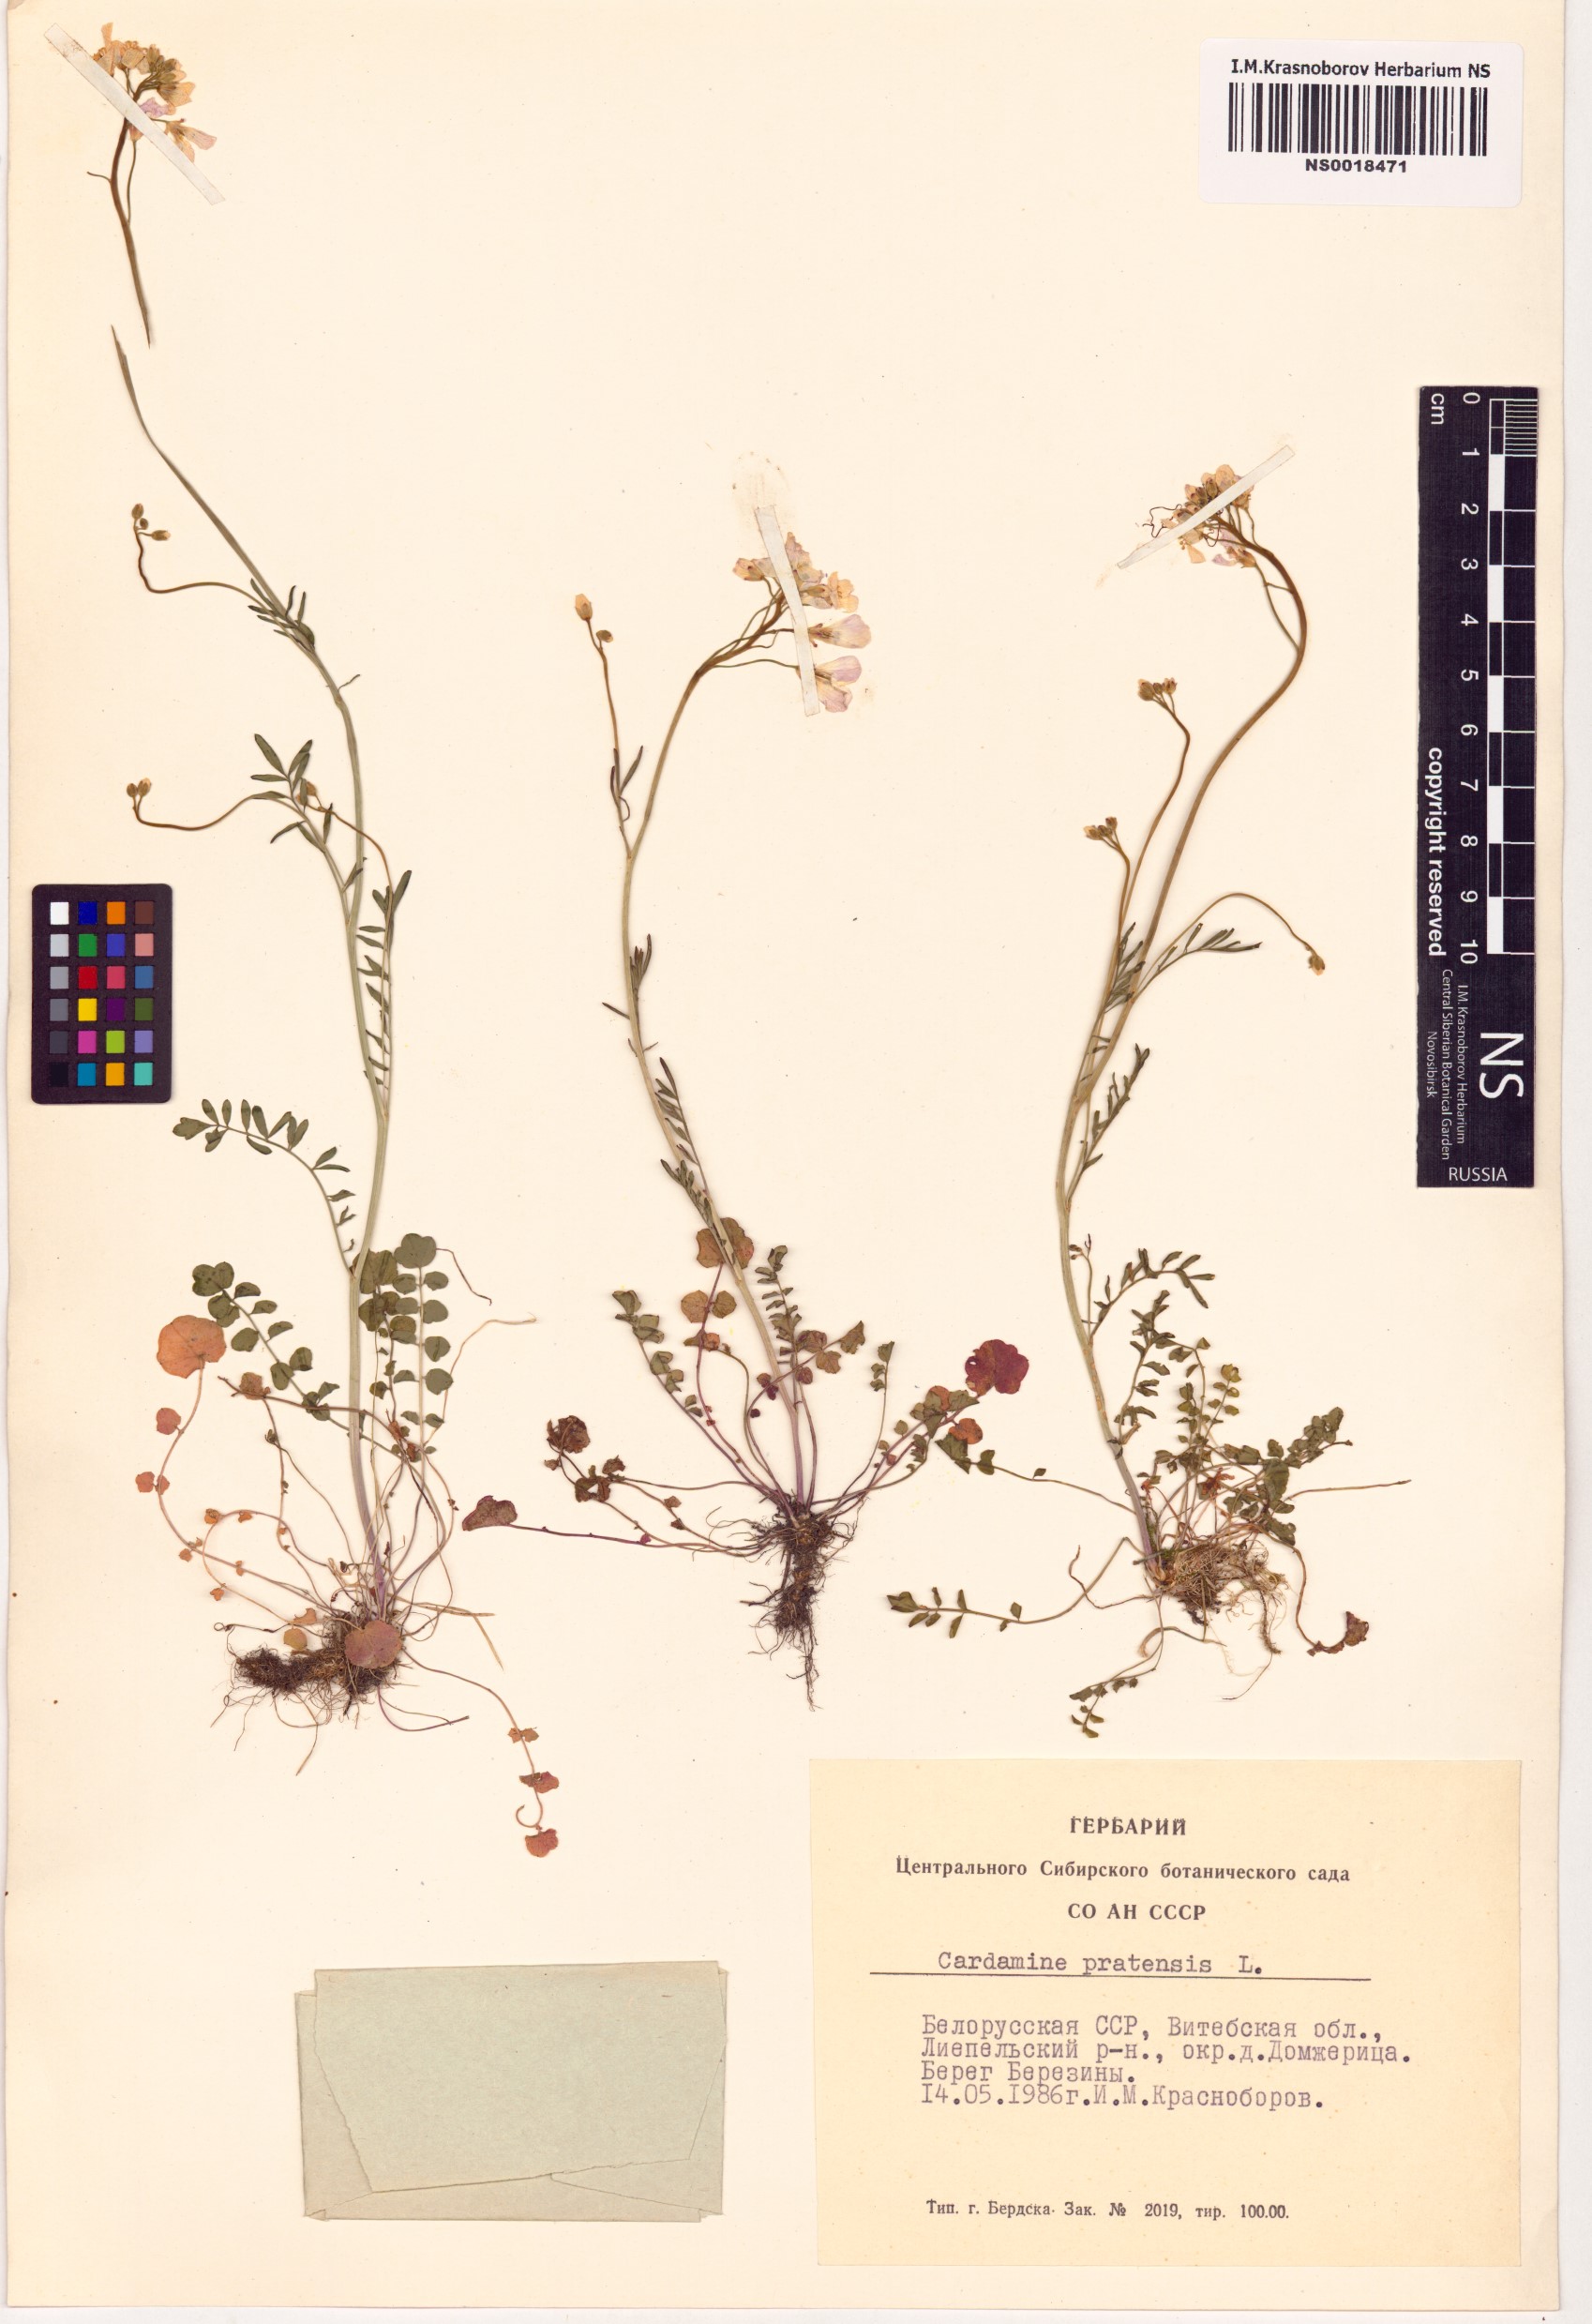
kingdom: Plantae
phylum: Tracheophyta
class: Magnoliopsida
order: Brassicales
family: Brassicaceae
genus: Cardamine
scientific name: Cardamine pratensis
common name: Cuckoo flower
